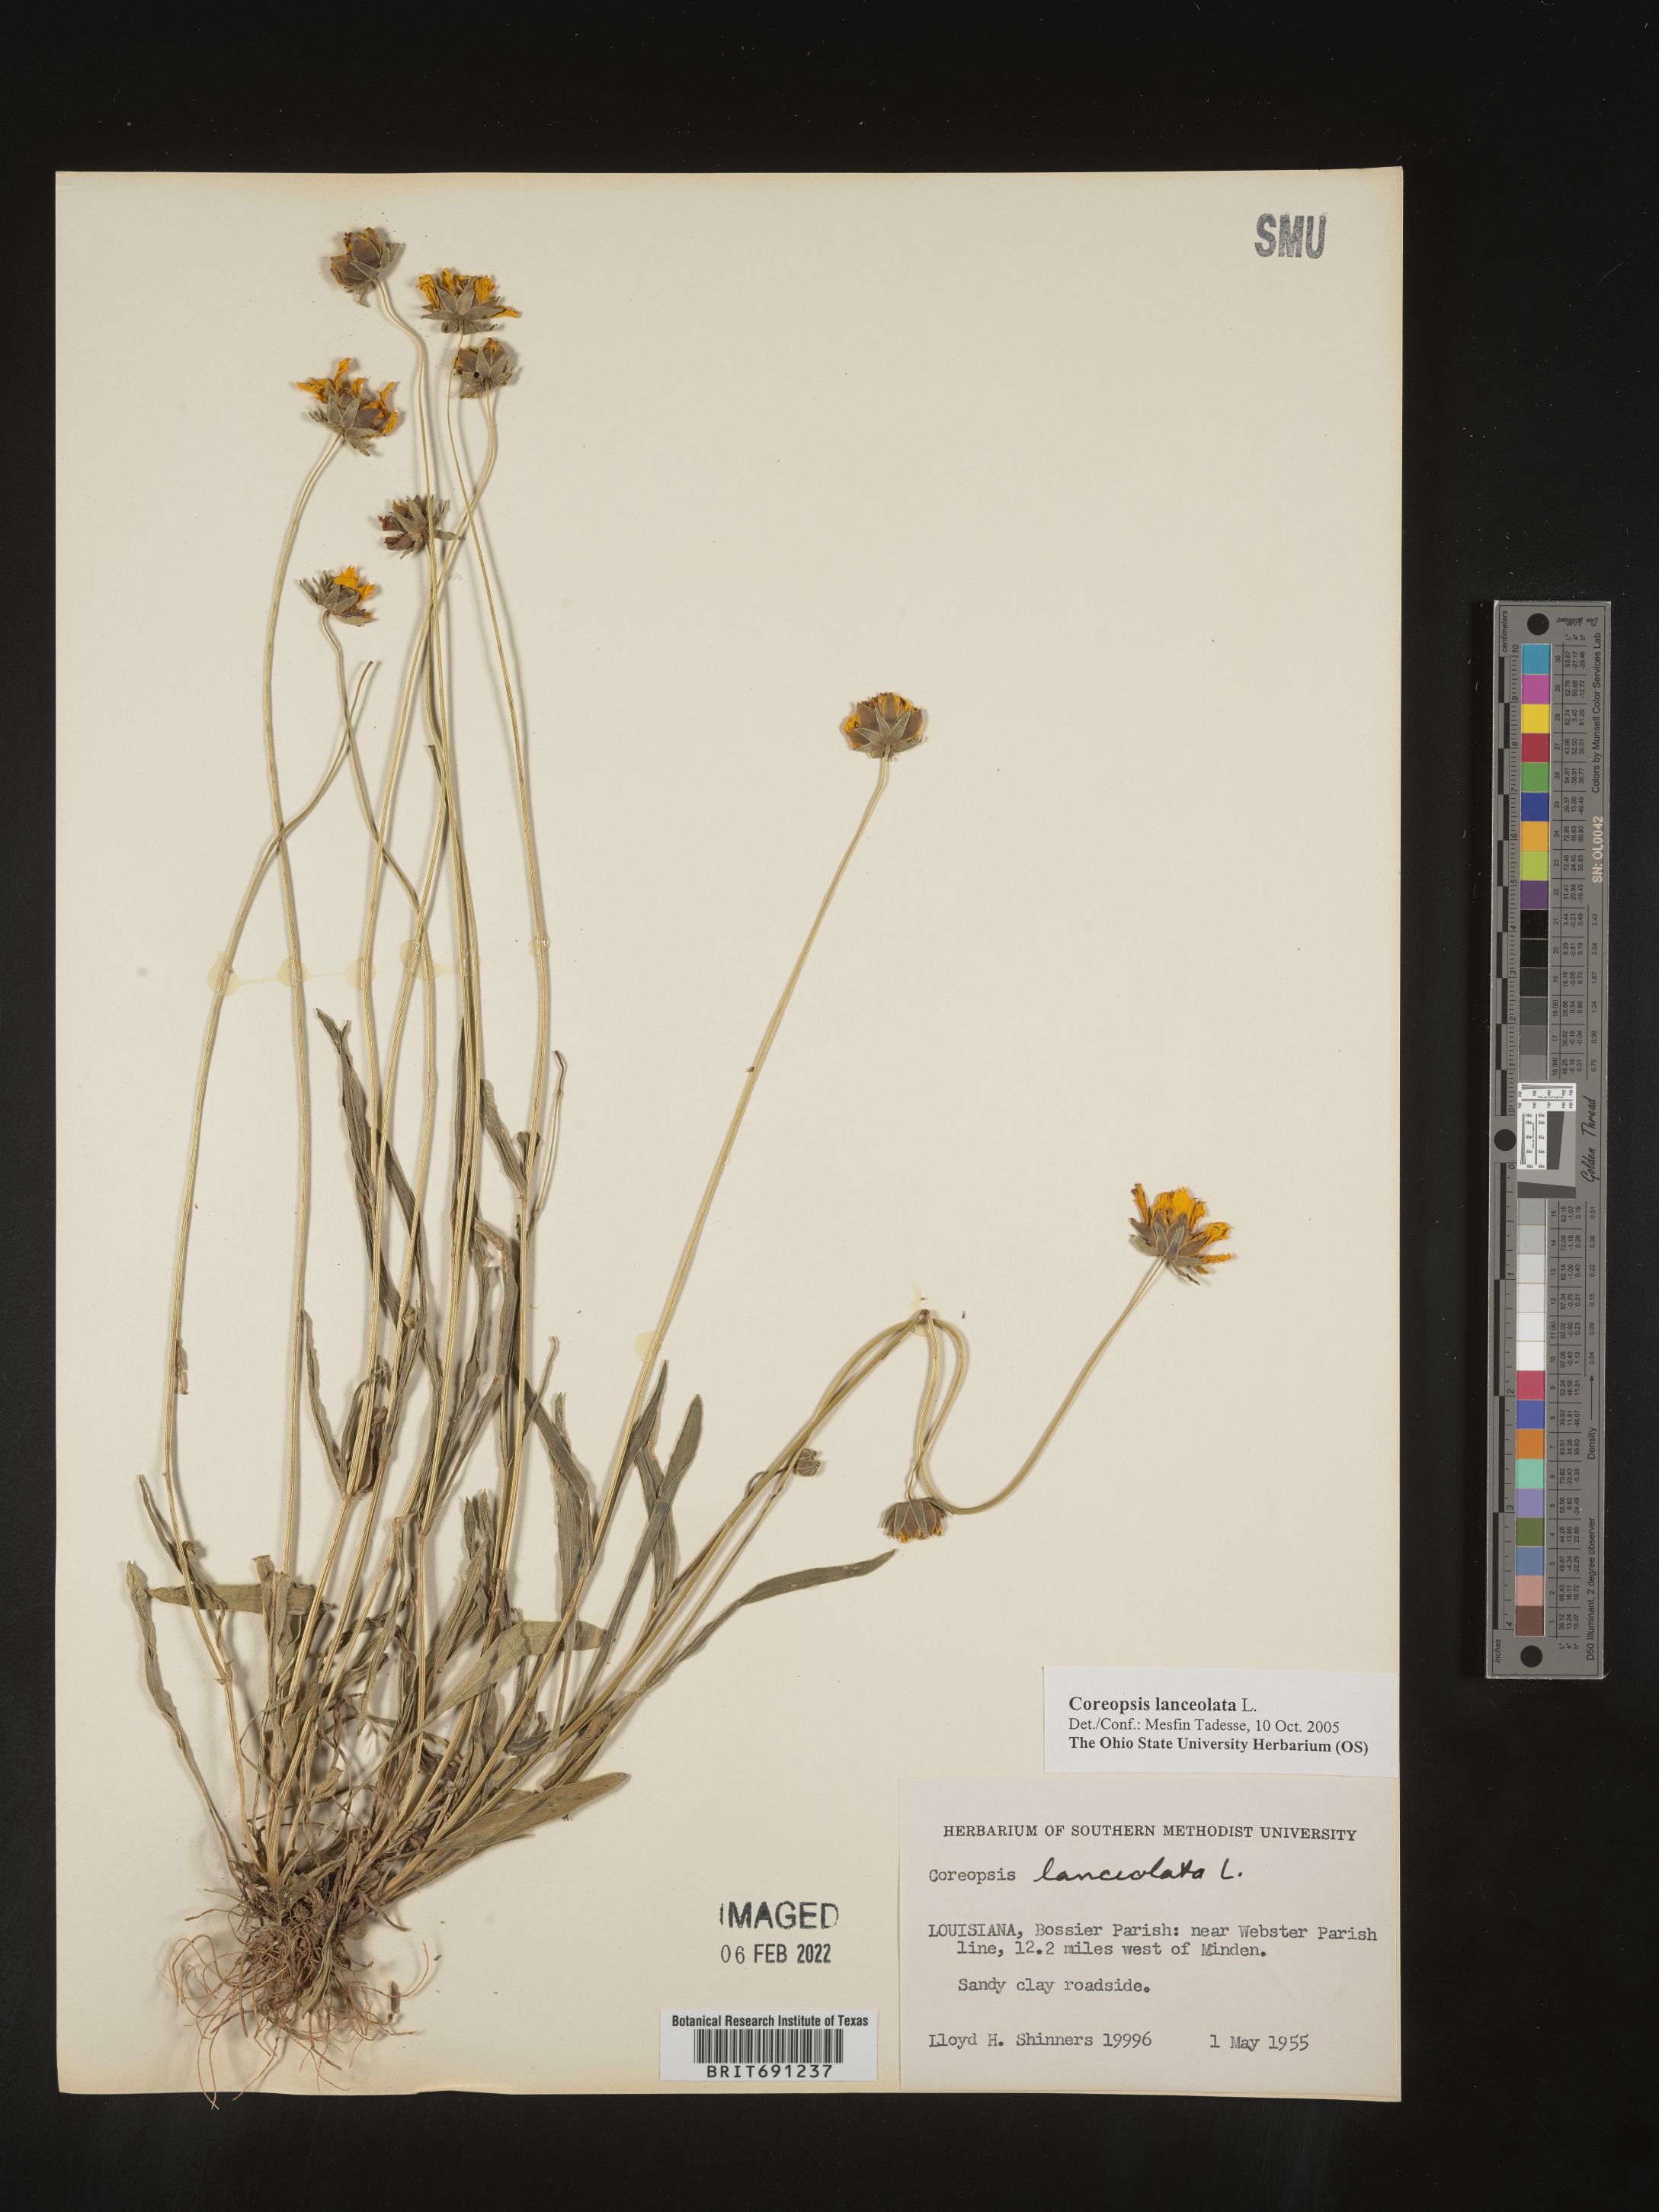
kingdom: Plantae
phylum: Tracheophyta
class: Magnoliopsida
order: Asterales
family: Asteraceae
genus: Coreopsis
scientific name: Coreopsis lanceolata
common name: Garden coreopsis
